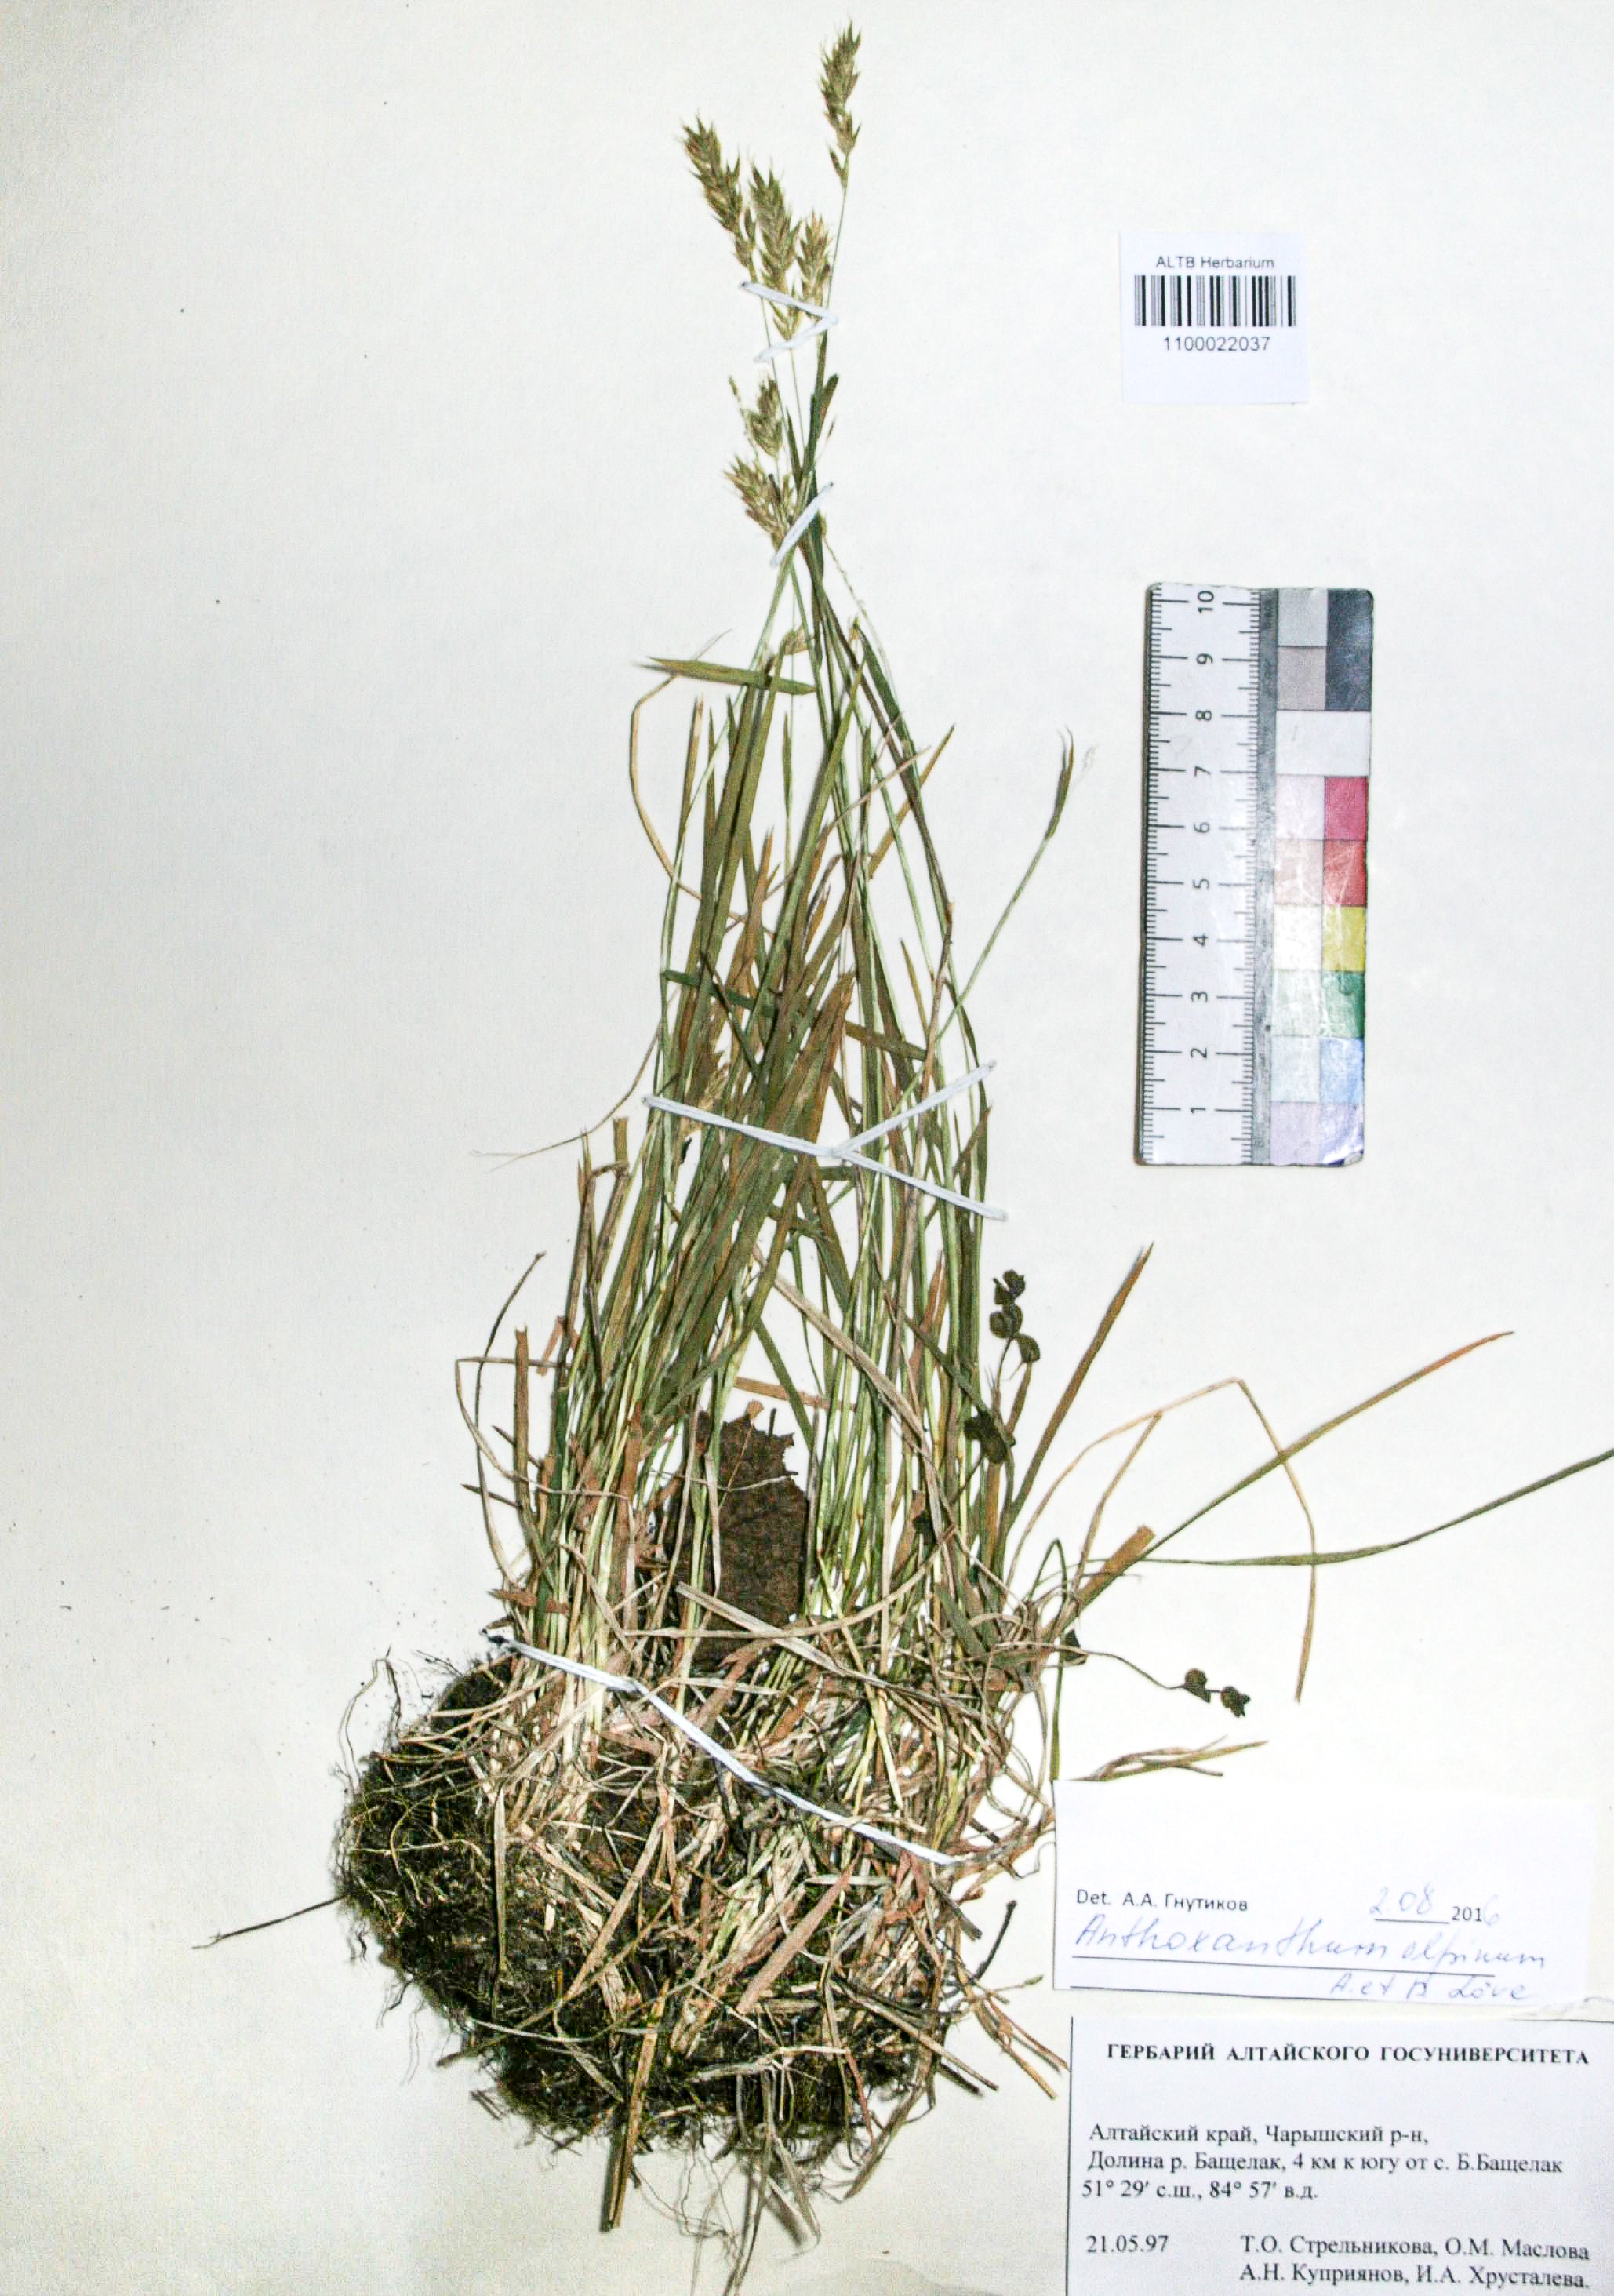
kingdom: Plantae
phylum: Tracheophyta
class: Liliopsida
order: Poales
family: Poaceae
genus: Anthoxanthum
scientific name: Anthoxanthum odoratum
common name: Sweet vernalgrass
